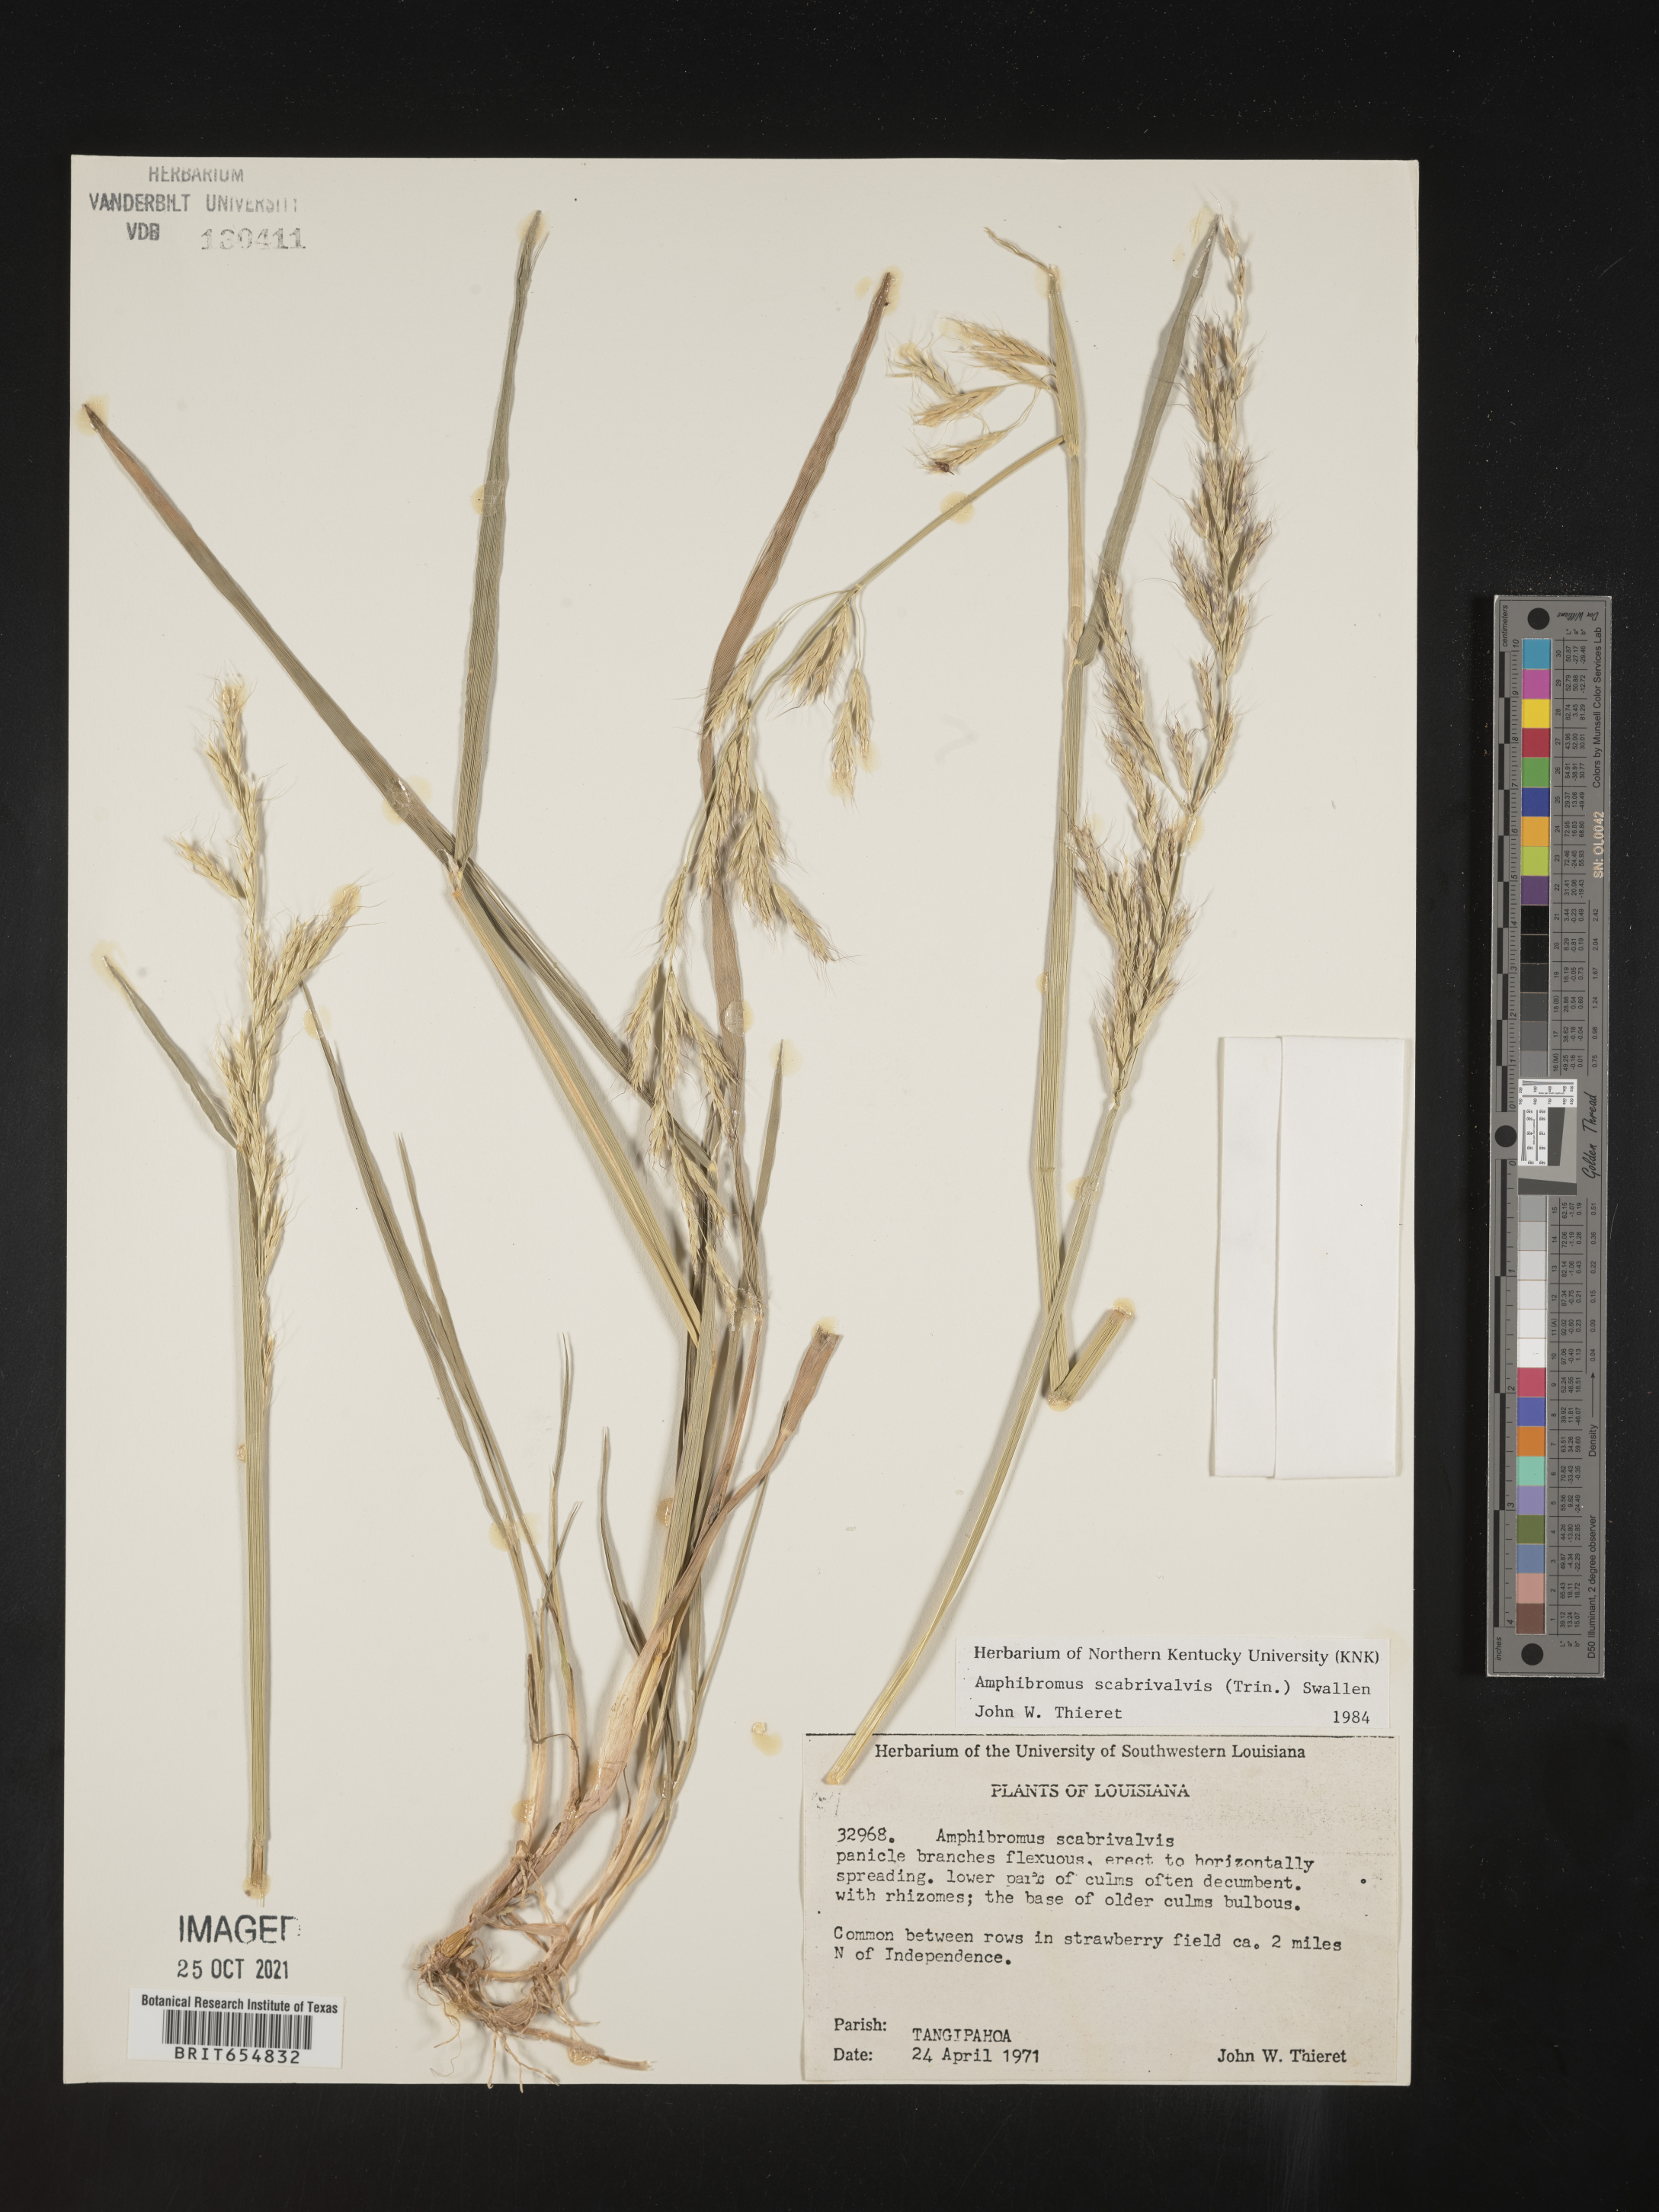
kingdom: Plantae
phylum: Tracheophyta
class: Liliopsida
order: Poales
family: Poaceae
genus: Amphibromus
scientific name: Amphibromus
